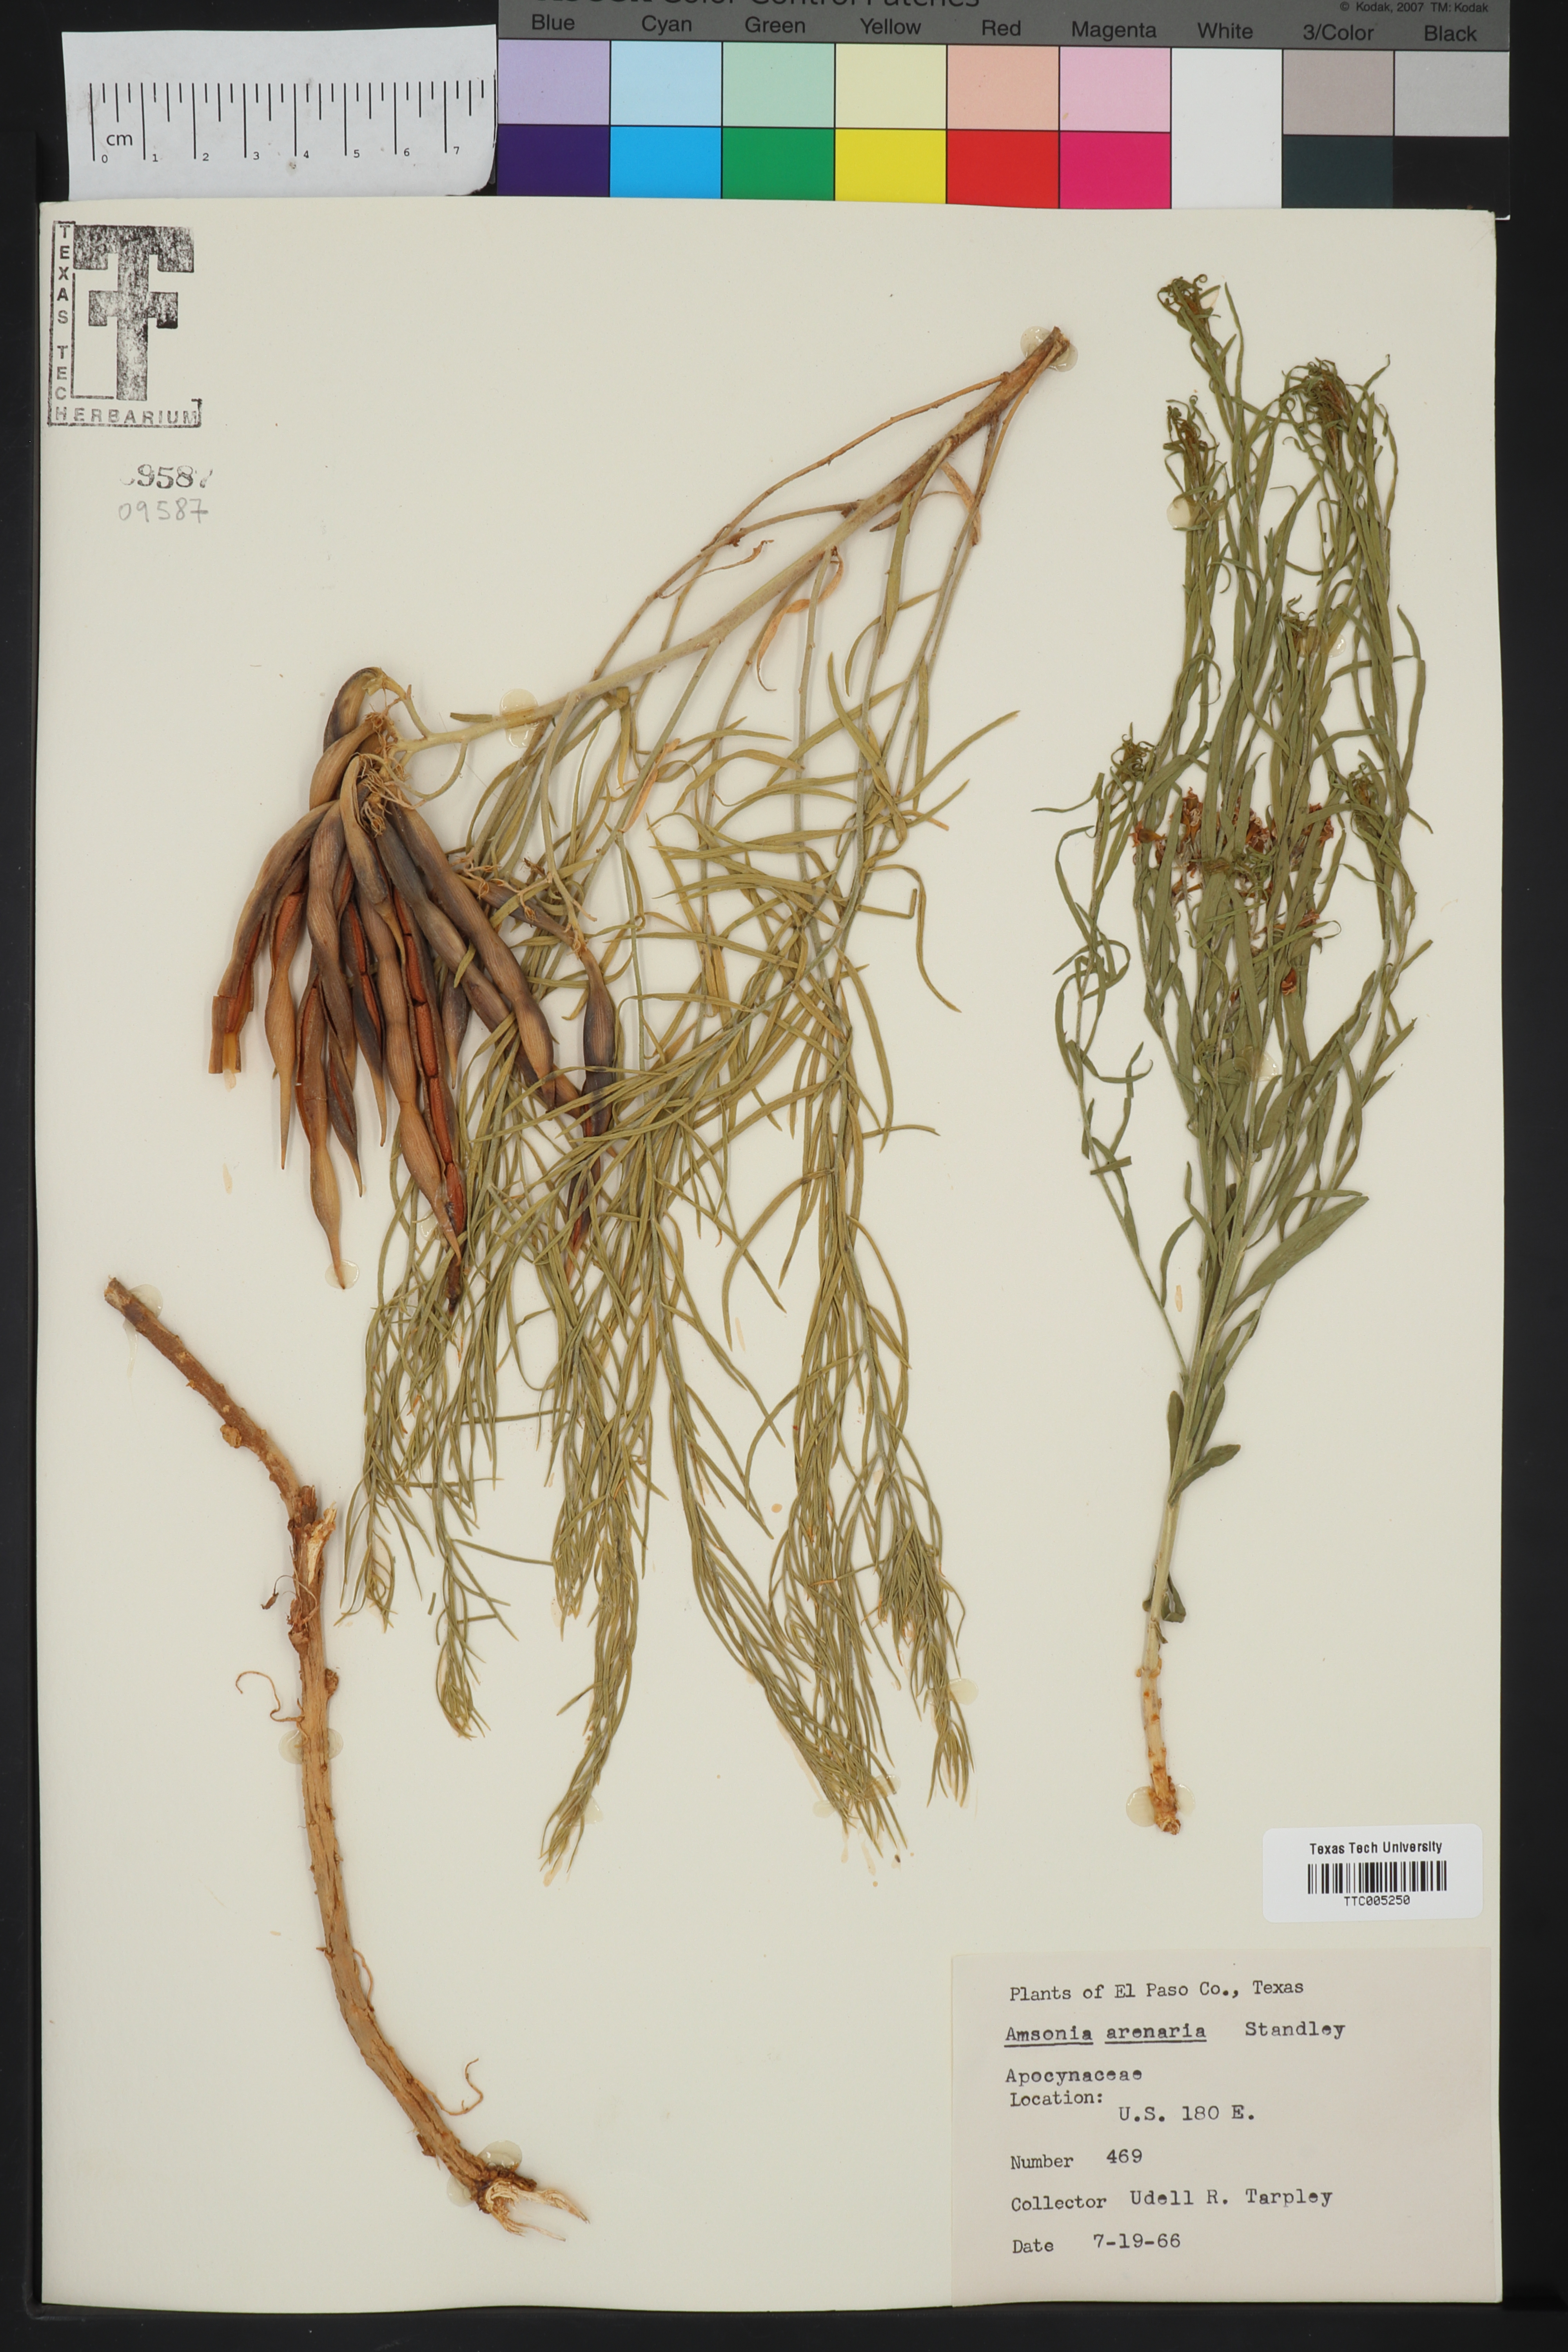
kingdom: Plantae
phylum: Tracheophyta
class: Magnoliopsida
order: Gentianales
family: Apocynaceae
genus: Amsonia
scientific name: Amsonia tomentosa
